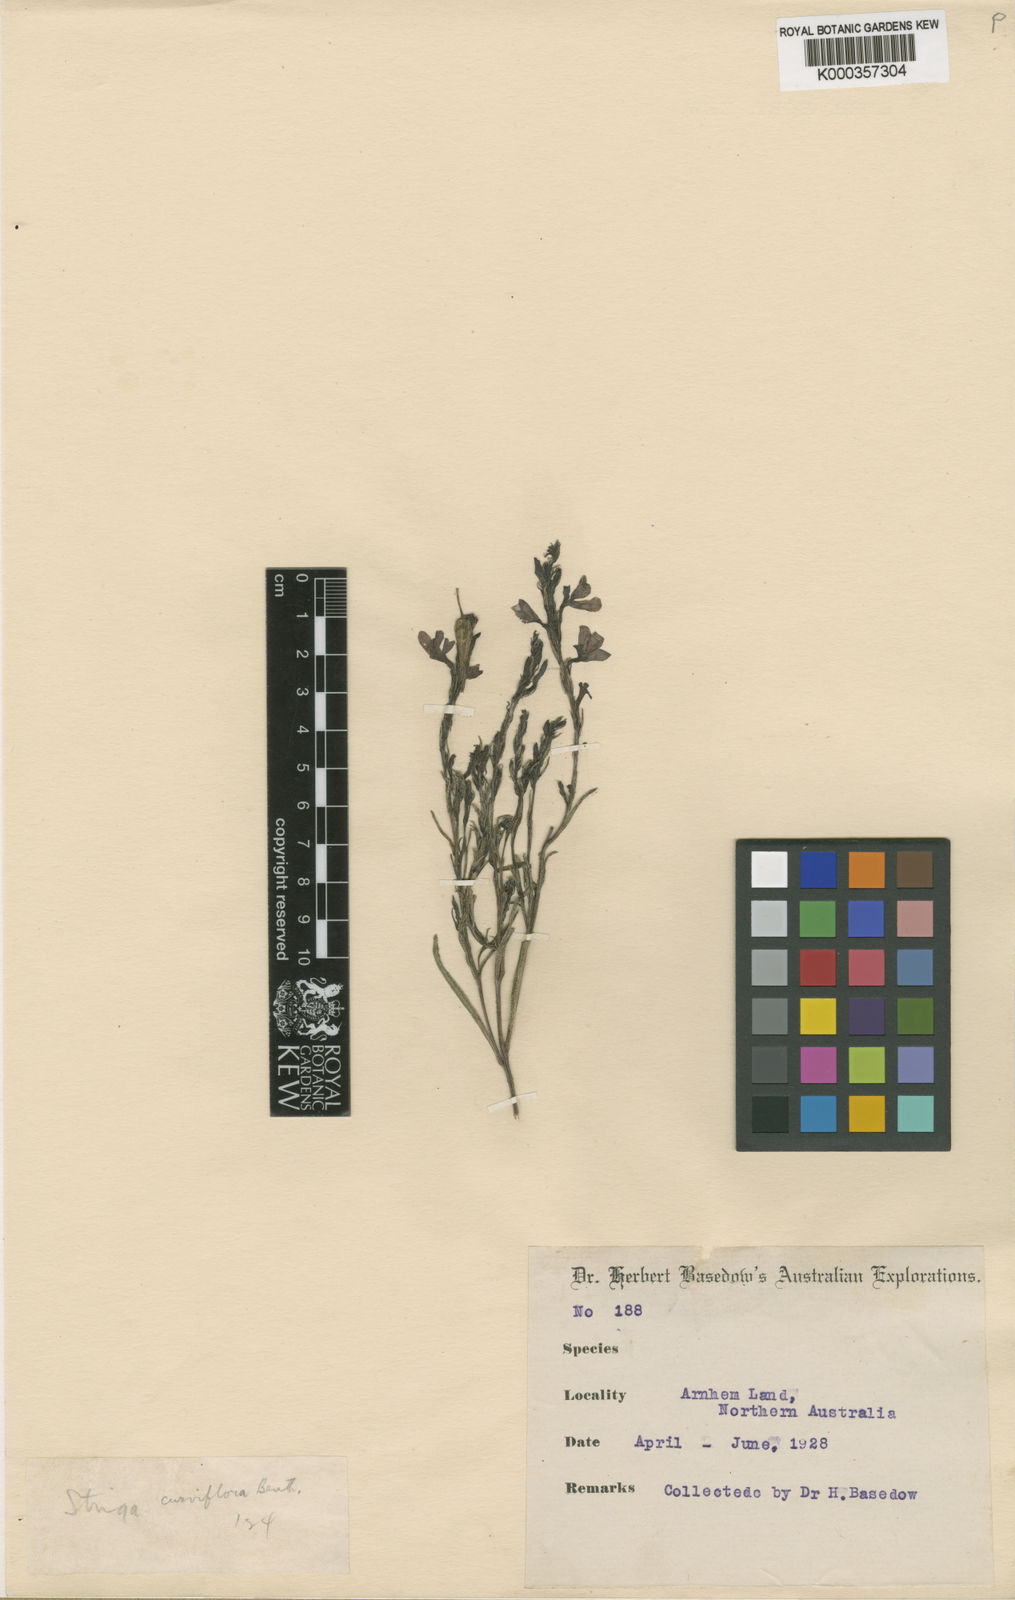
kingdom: Plantae
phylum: Tracheophyta
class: Magnoliopsida
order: Lamiales
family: Orobanchaceae
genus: Striga
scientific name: Striga curviflora
